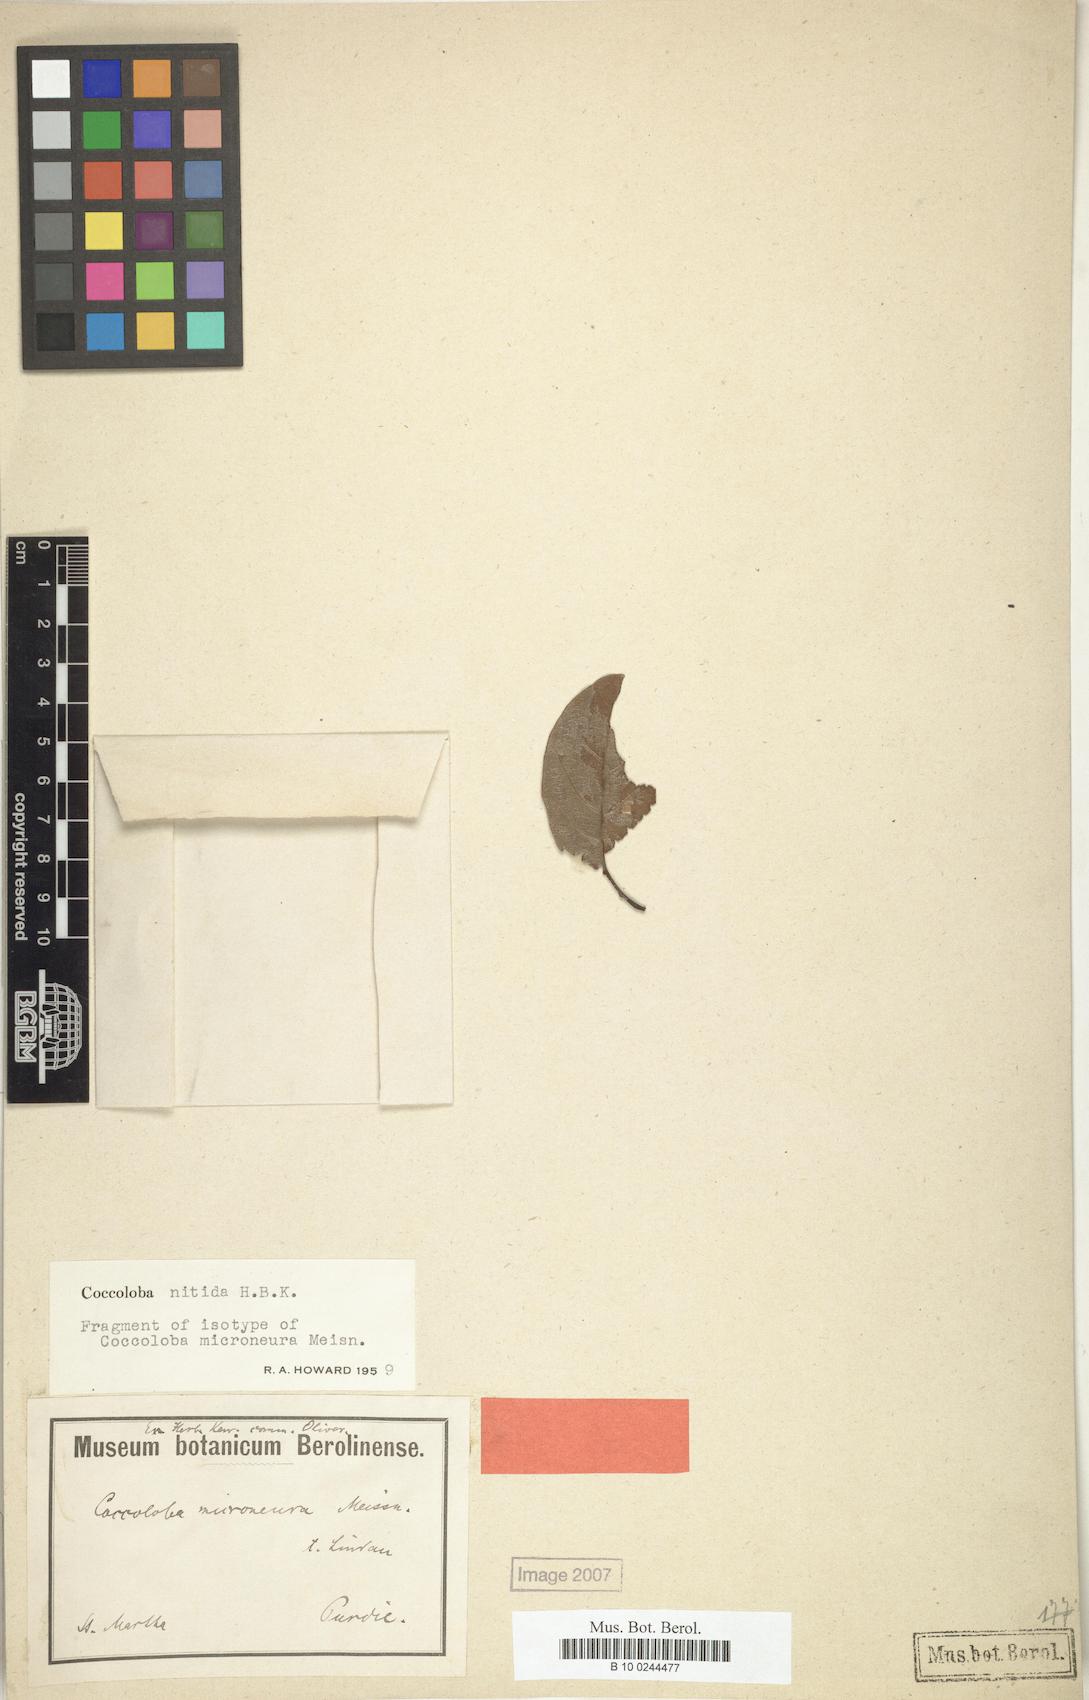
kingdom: Plantae
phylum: Tracheophyta
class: Magnoliopsida
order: Caryophyllales
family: Polygonaceae
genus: Coccoloba
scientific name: Coccoloba nitida
